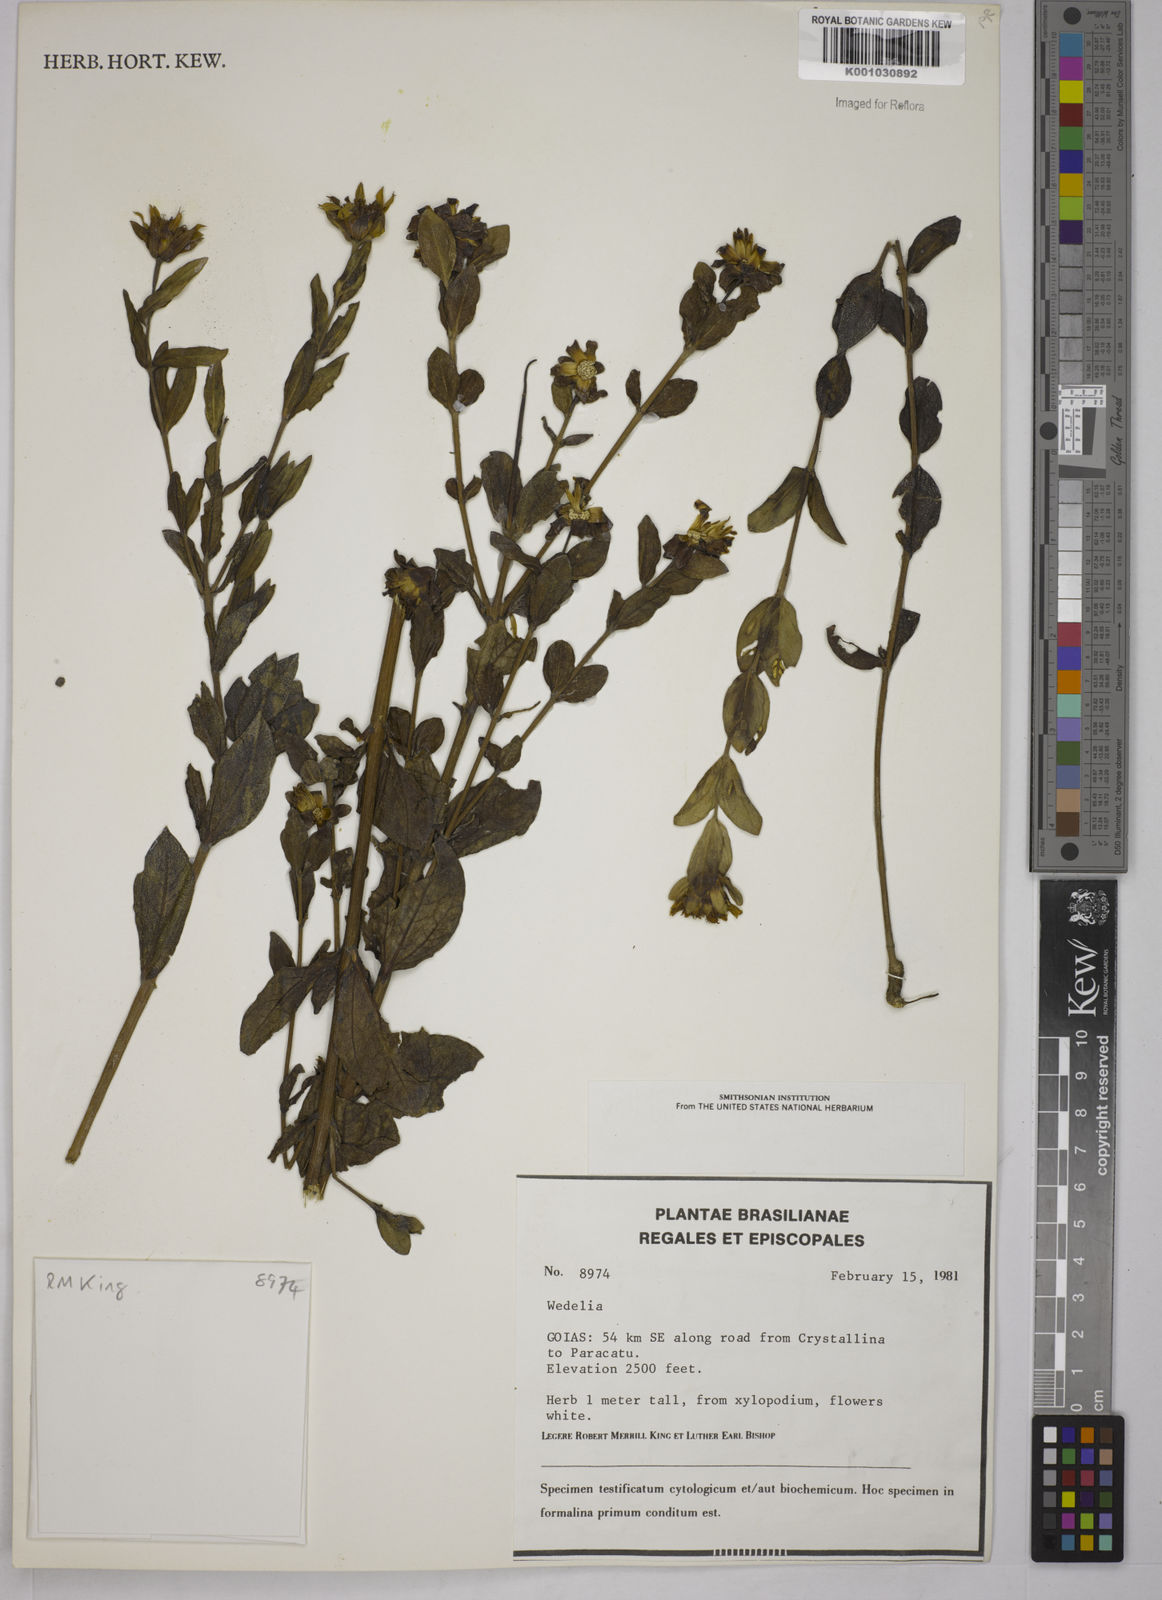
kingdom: Plantae
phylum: Tracheophyta
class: Magnoliopsida
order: Asterales
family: Asteraceae
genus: Wedelia
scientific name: Wedelia
